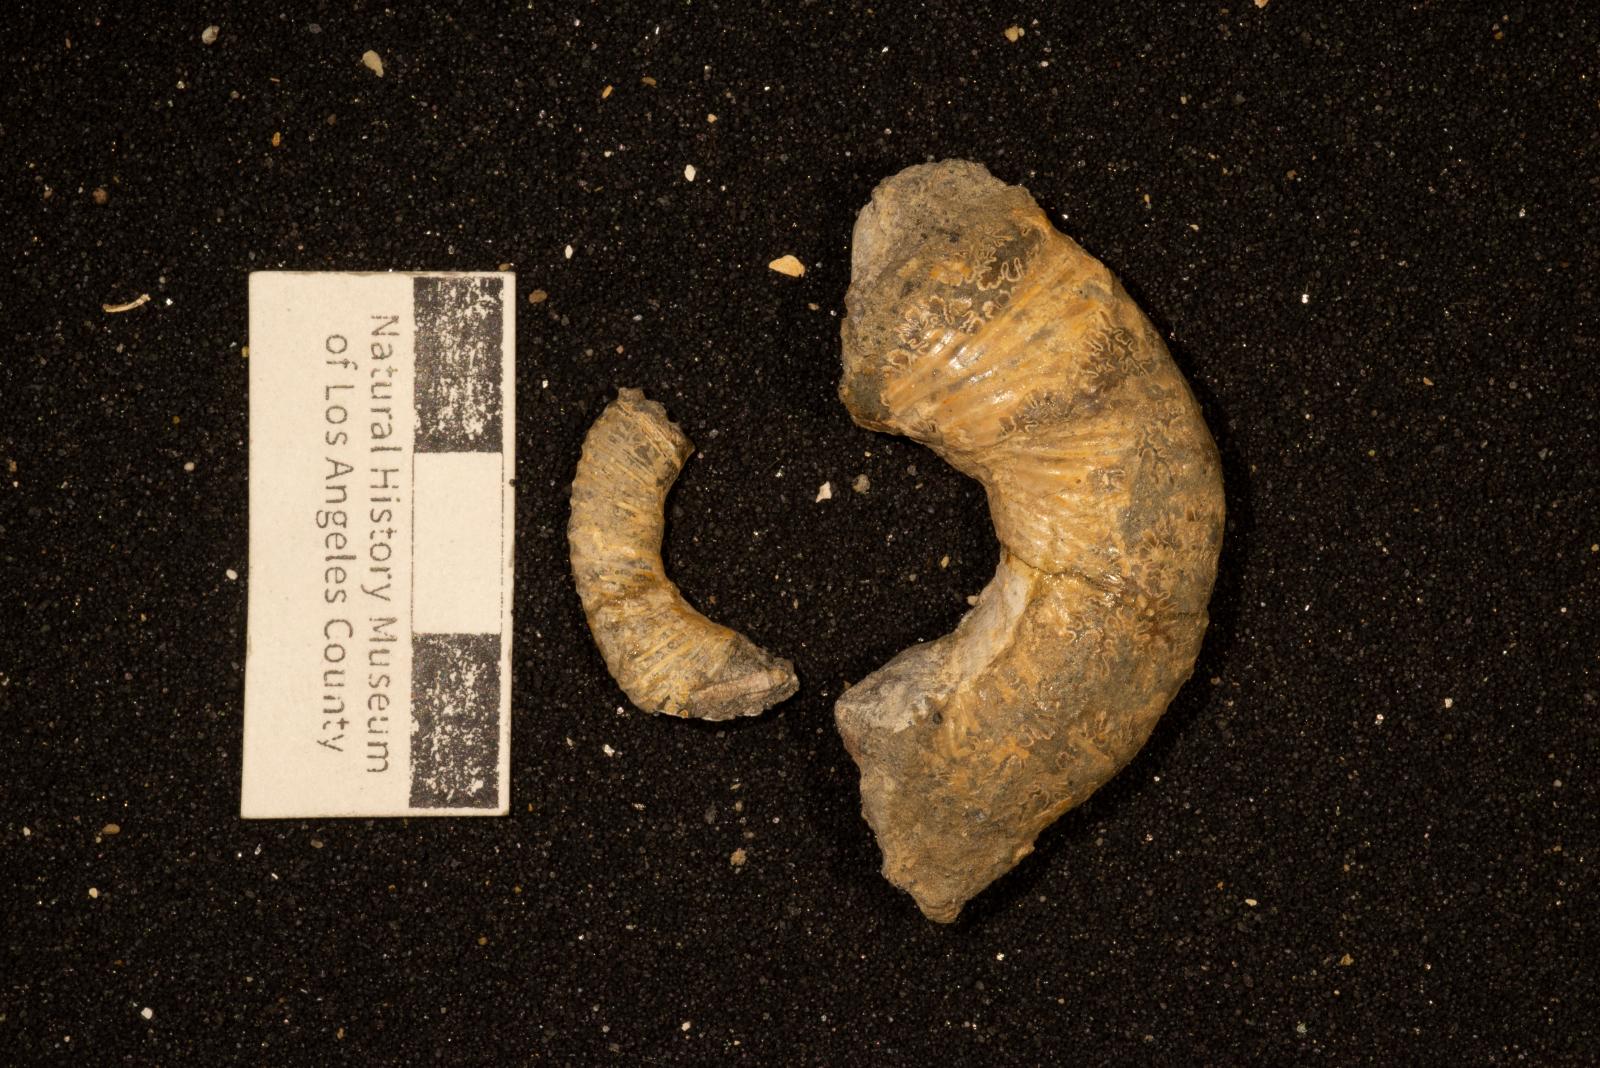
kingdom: Animalia
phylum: Mollusca
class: Cephalopoda
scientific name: Cephalopoda
